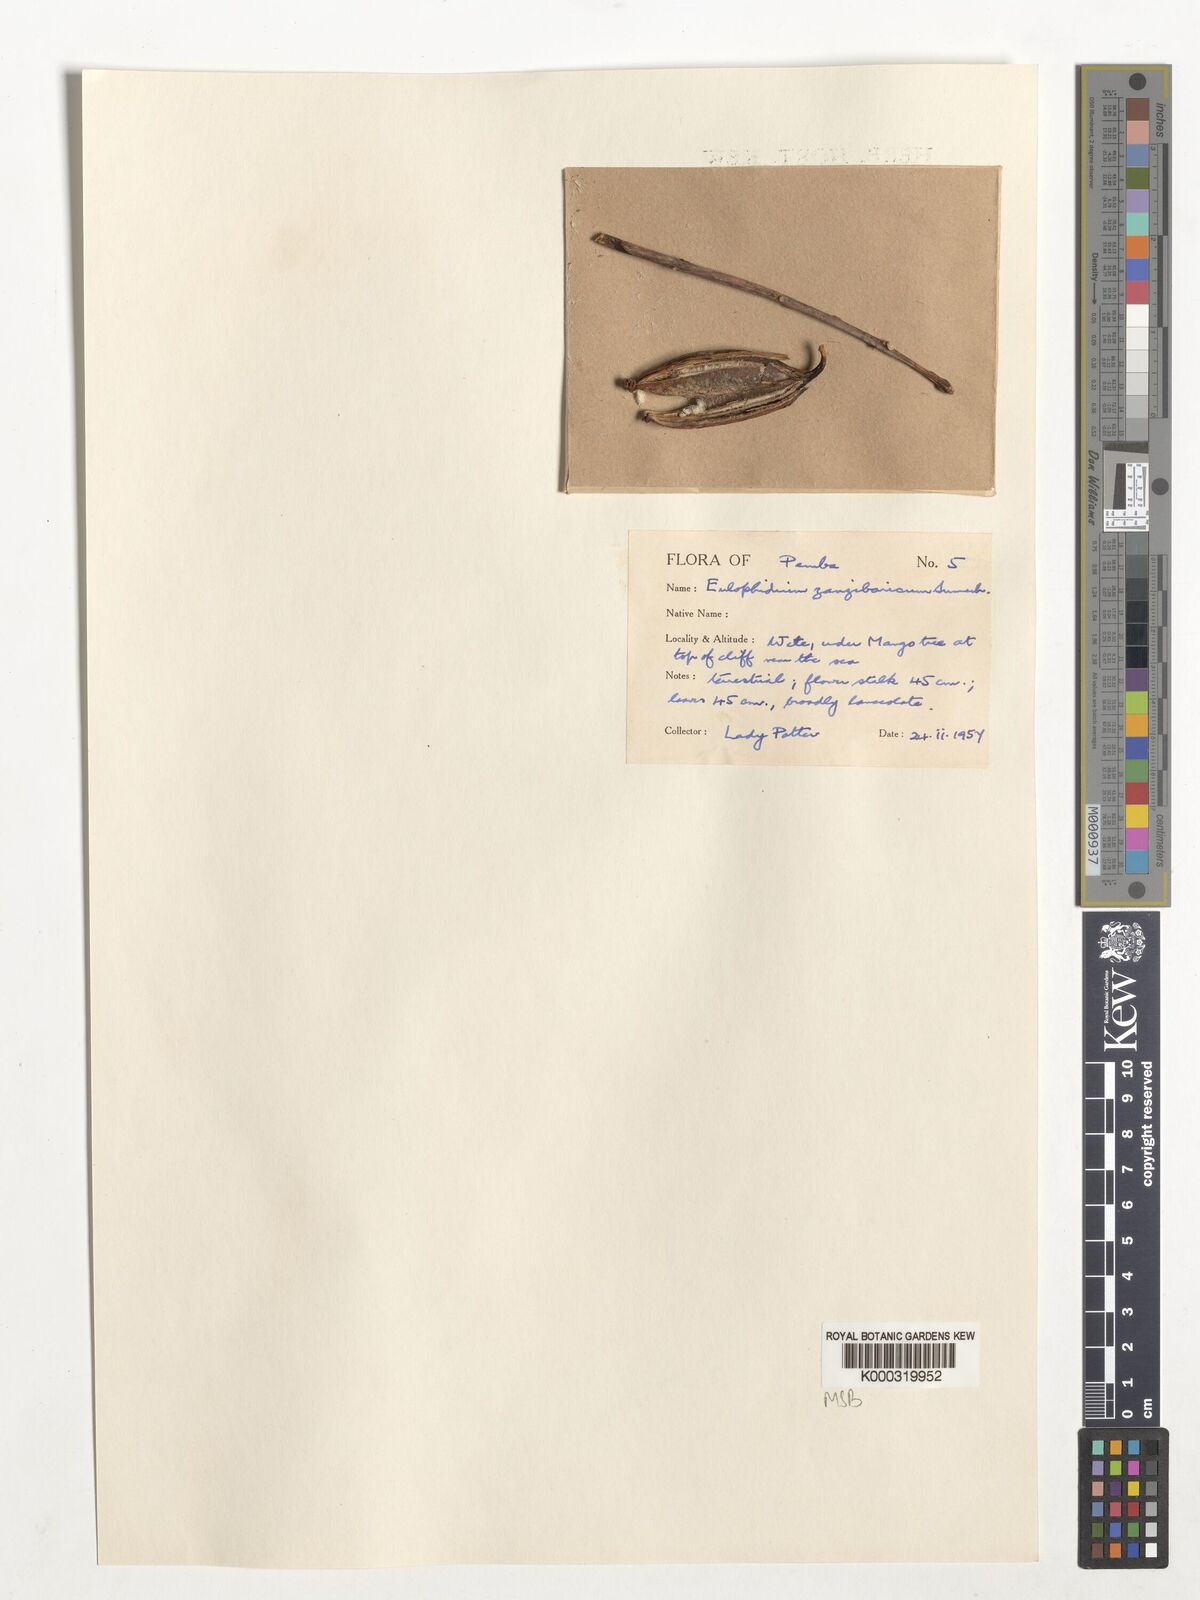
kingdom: Plantae
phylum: Tracheophyta
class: Liliopsida
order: Asparagales
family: Orchidaceae
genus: Eulophia
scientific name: Eulophia zanzibarica
